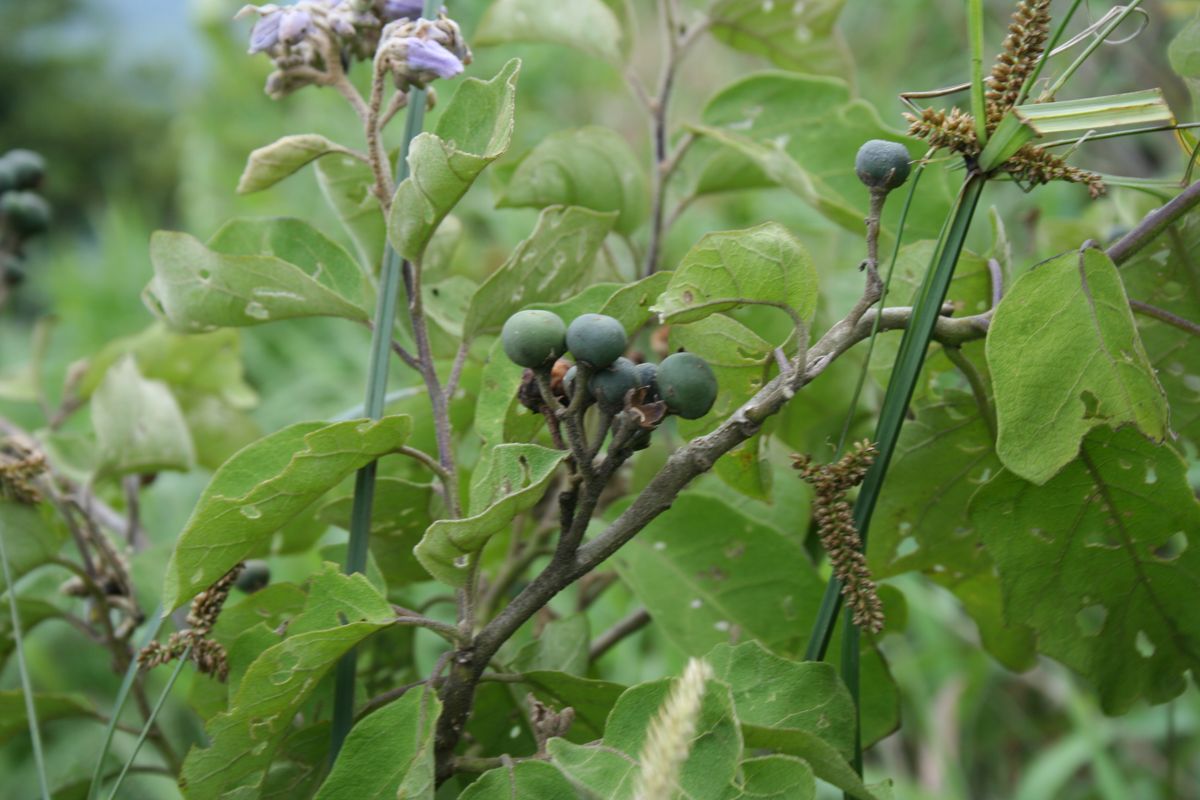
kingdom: Plantae
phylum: Tracheophyta
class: Magnoliopsida
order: Solanales
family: Solanaceae
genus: Solanum
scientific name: Solanum lanceolatum
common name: Orangeberry nightshade
